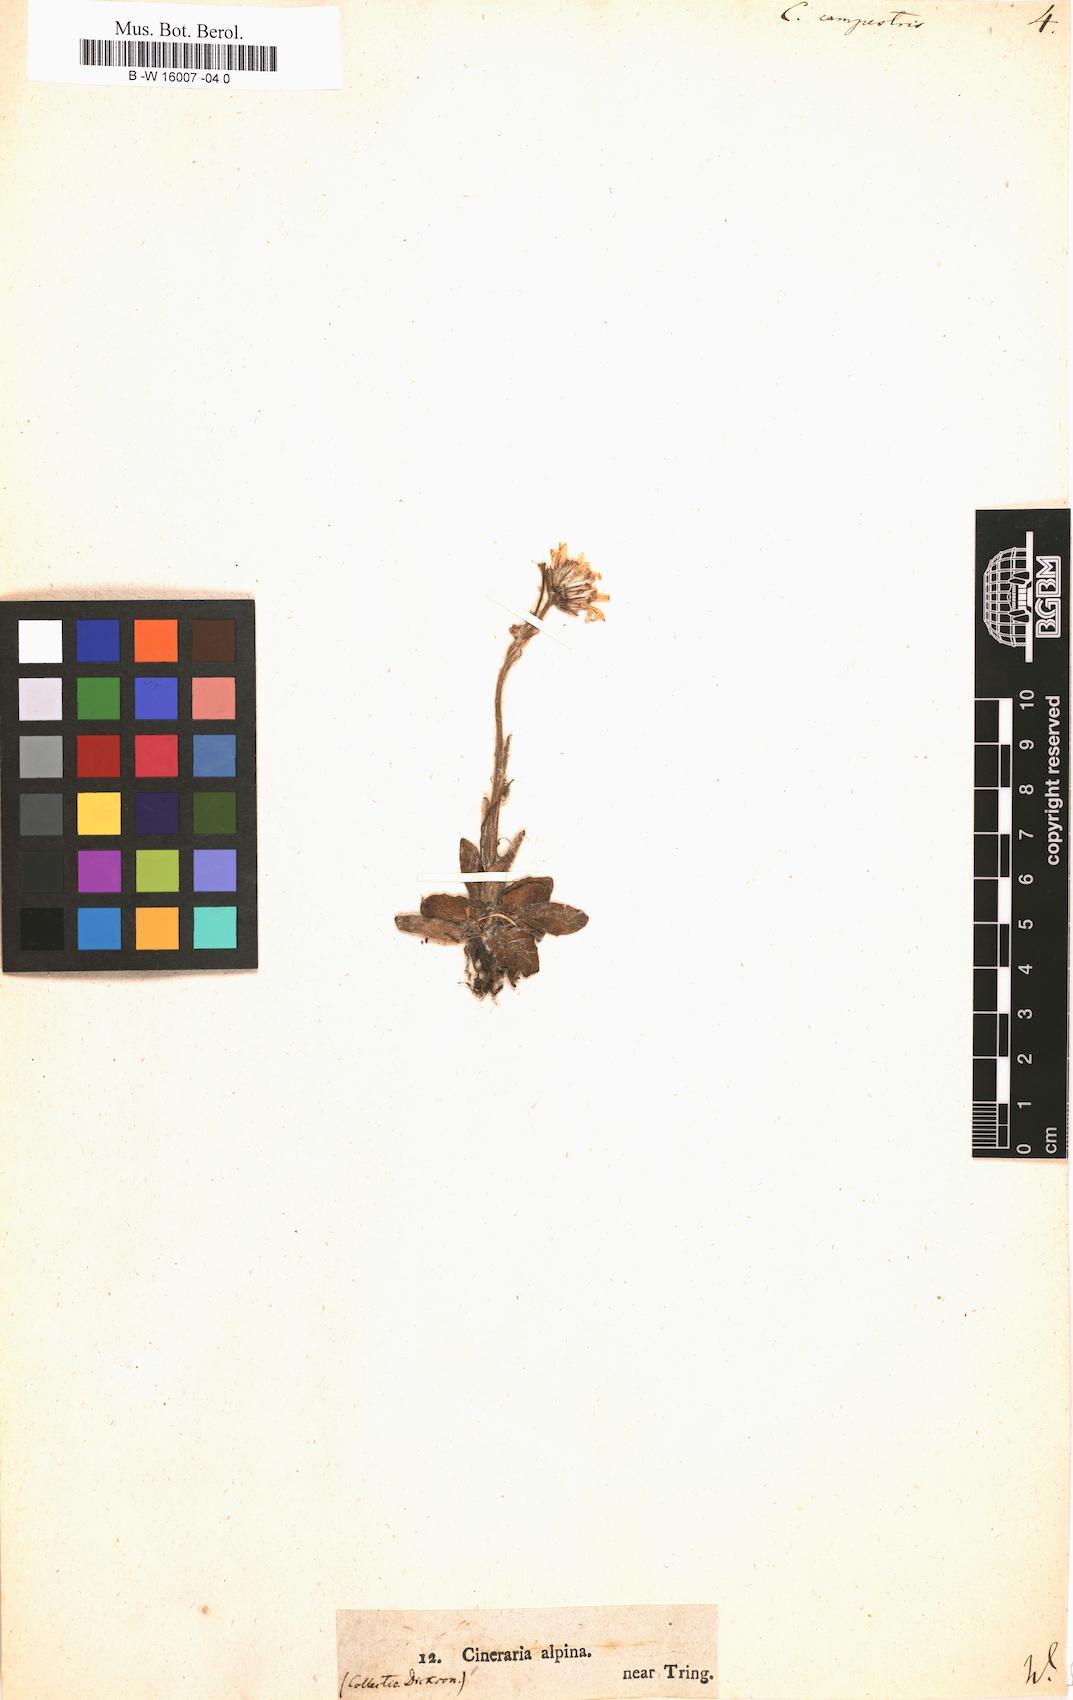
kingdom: Plantae
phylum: Tracheophyta
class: Magnoliopsida
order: Asterales
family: Asteraceae
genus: Tephroseris
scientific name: Tephroseris
